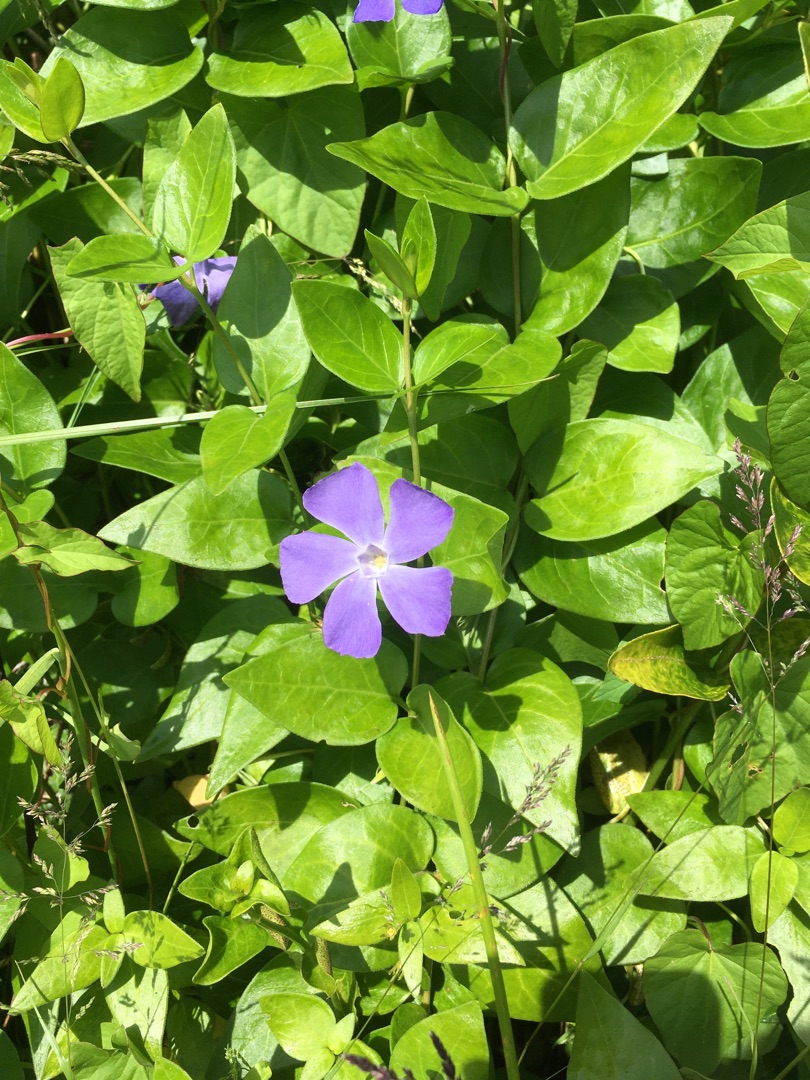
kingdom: Plantae
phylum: Tracheophyta
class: Magnoliopsida
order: Gentianales
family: Apocynaceae
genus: Vinca
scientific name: Vinca major
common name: Stor singrøn
